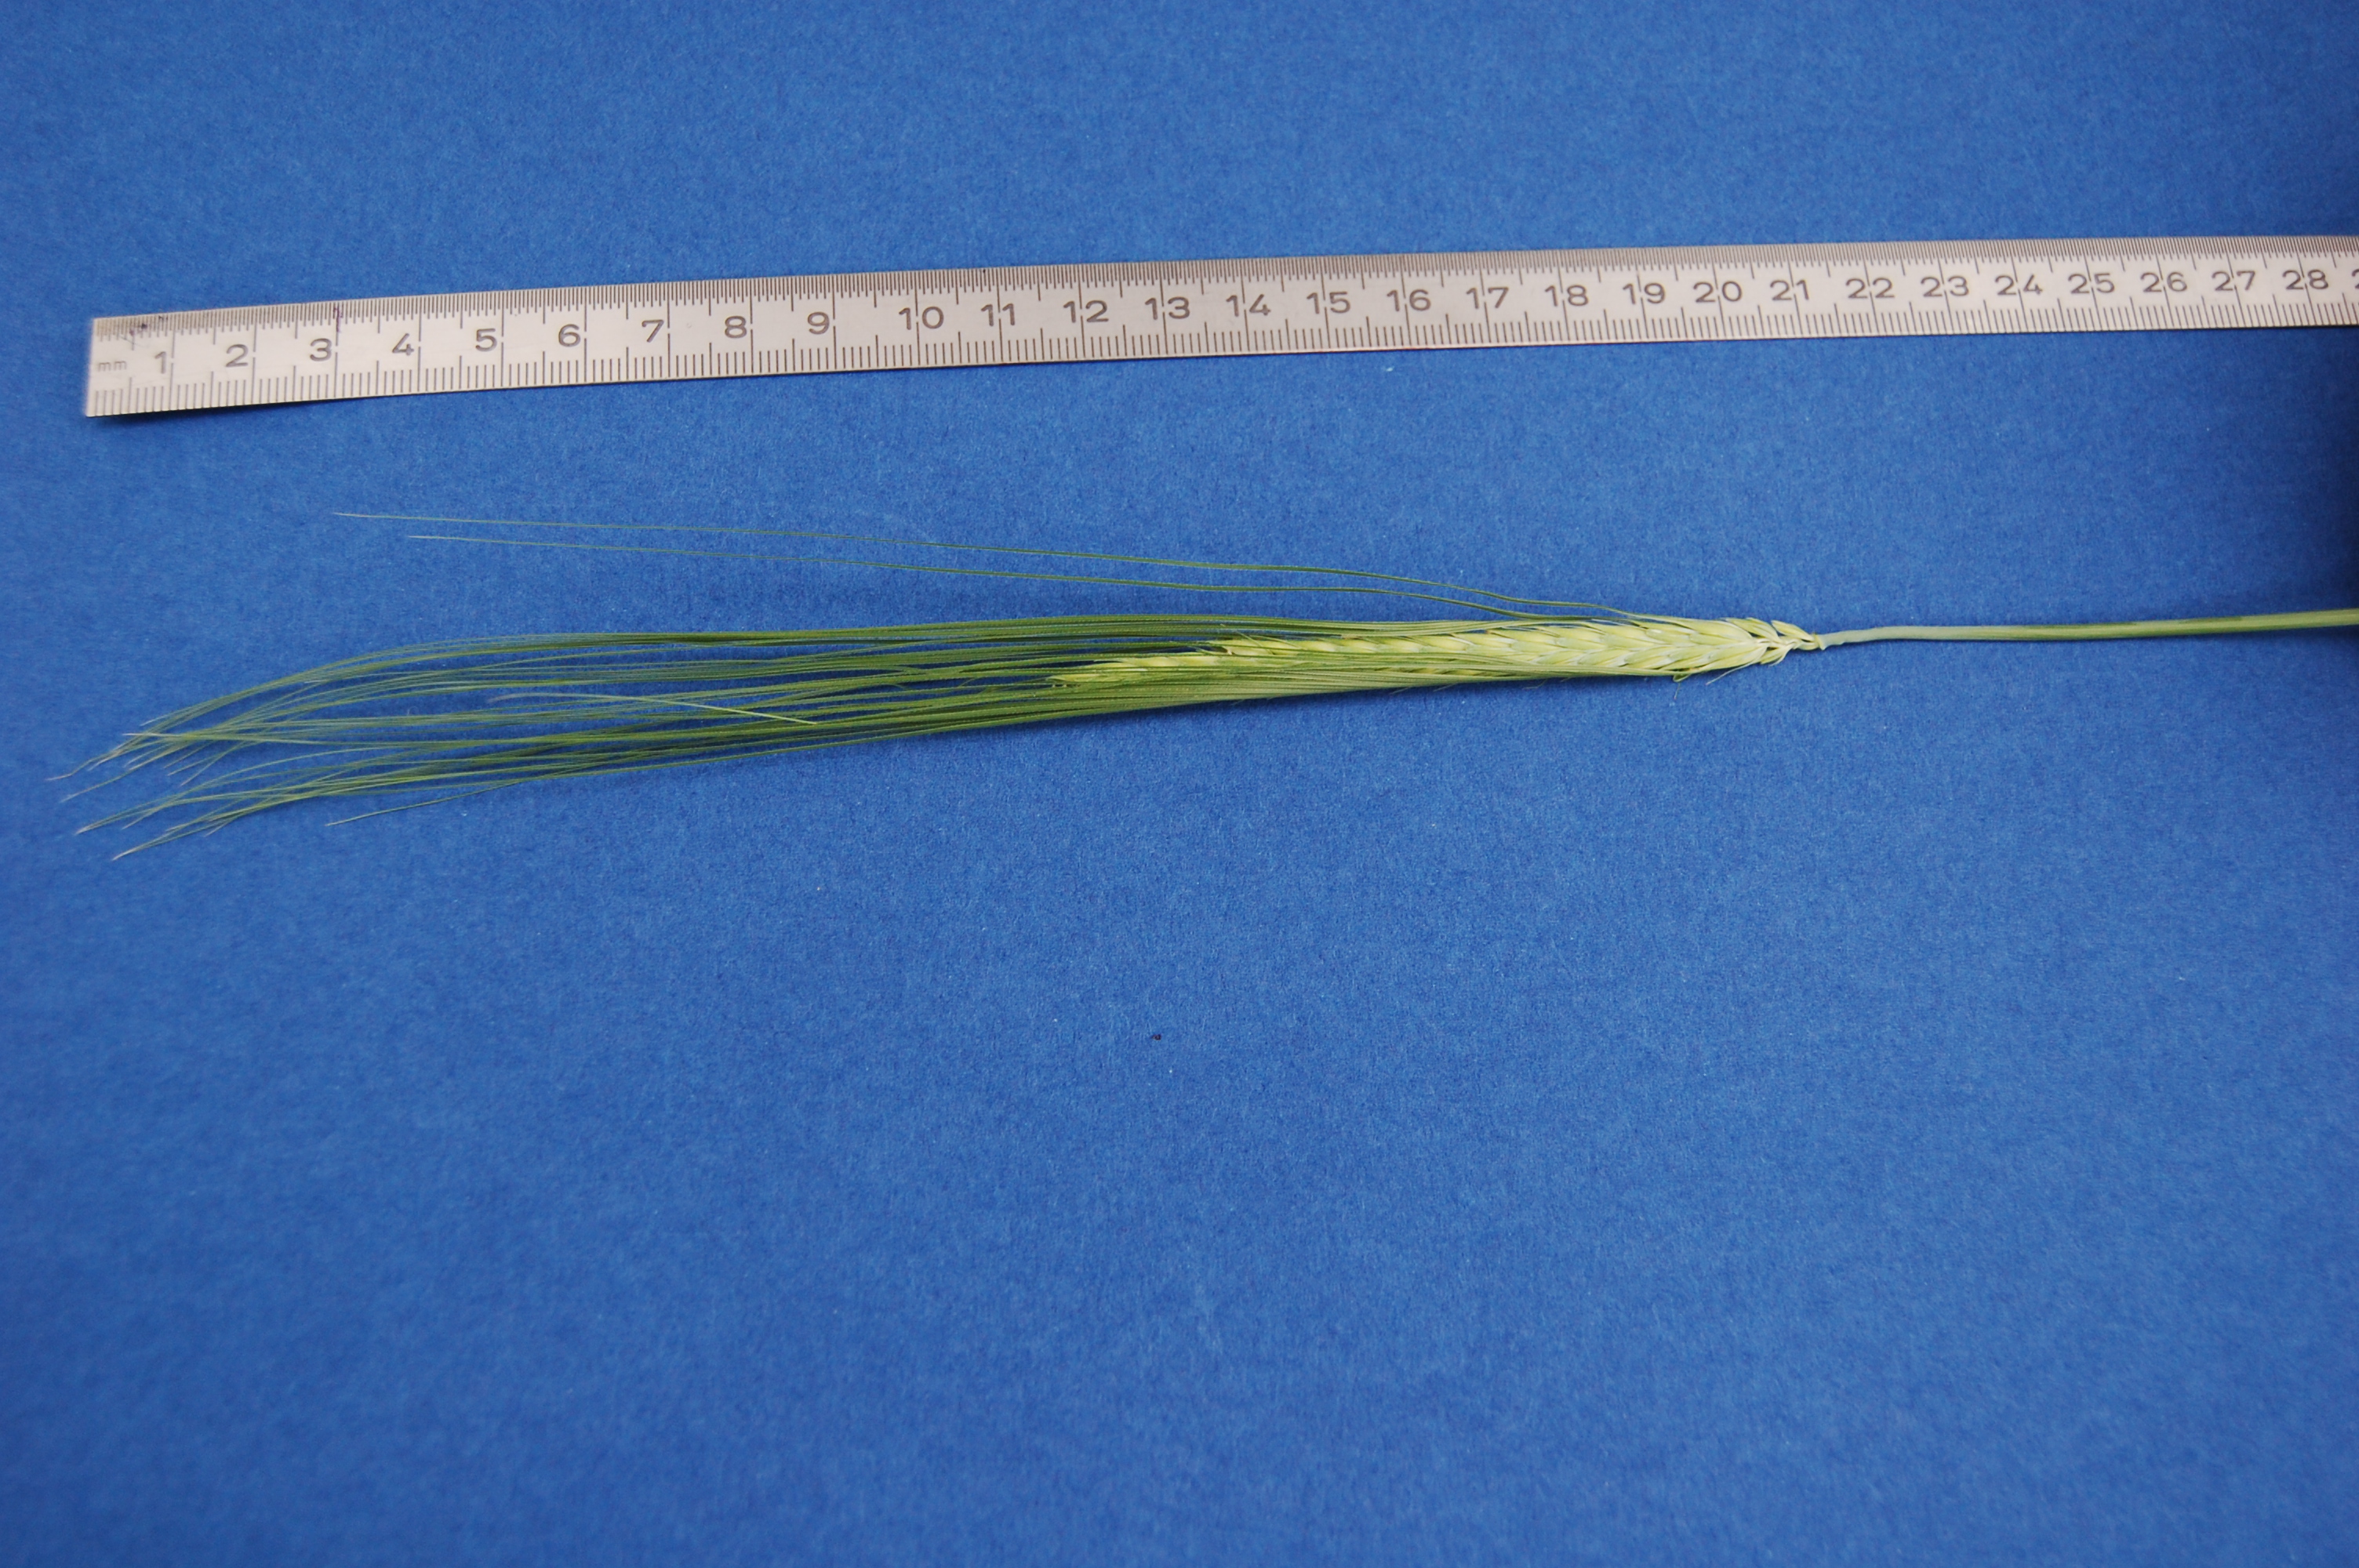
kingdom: Plantae
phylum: Tracheophyta
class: Liliopsida
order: Poales
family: Poaceae
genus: Hordeum
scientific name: Hordeum vulgare
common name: Common barley
